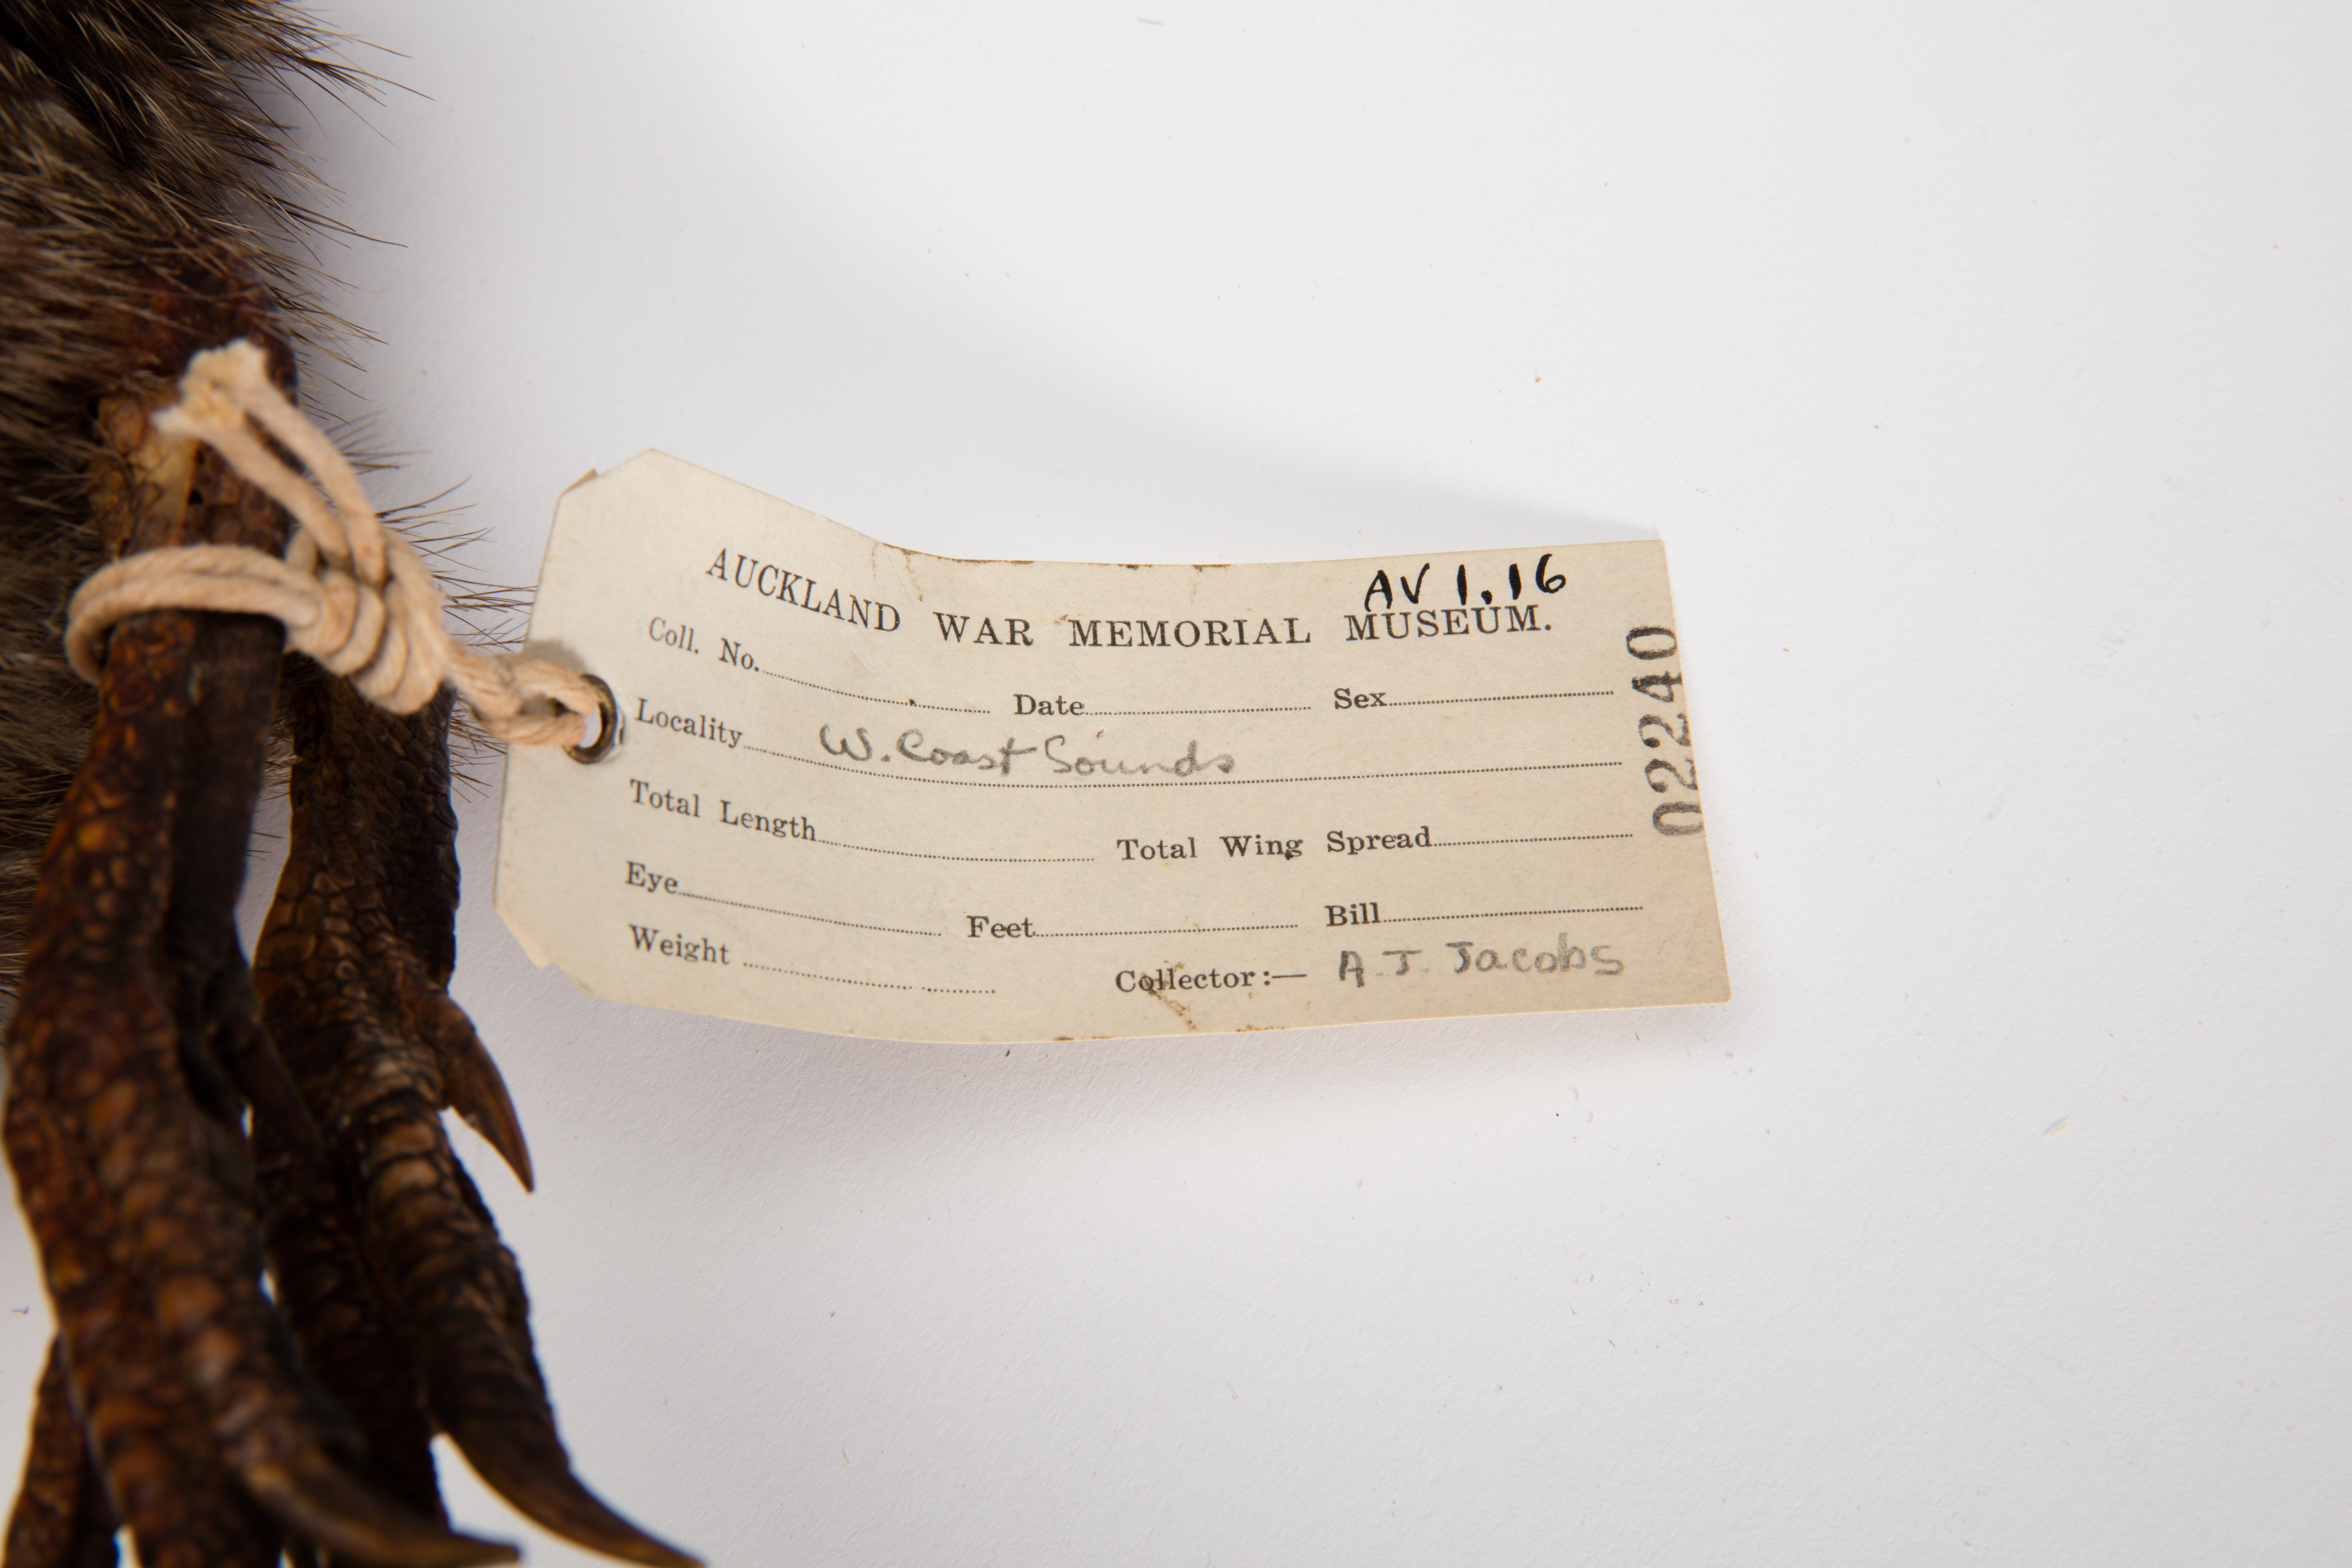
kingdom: Animalia
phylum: Chordata
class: Aves
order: Apterygiformes
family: Apterygidae
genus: Apteryx
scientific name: Apteryx owenii
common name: Little spotted kiwi
